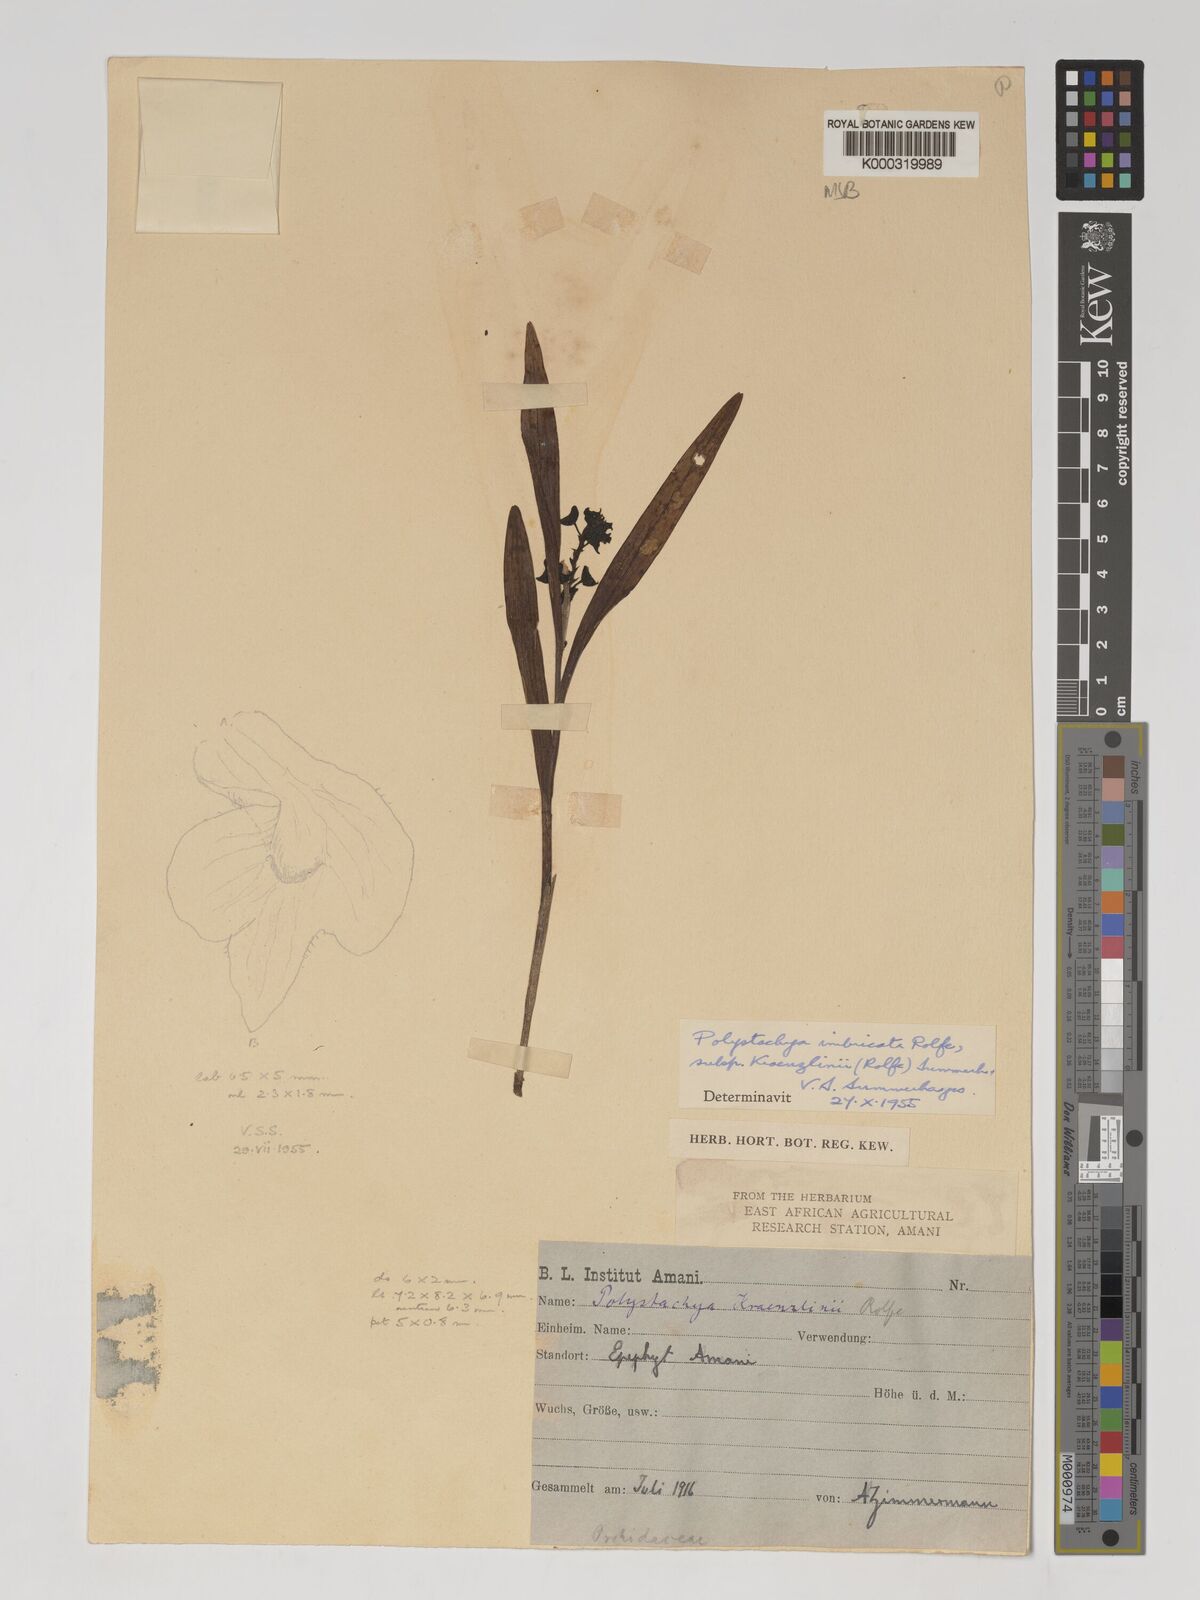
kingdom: Plantae
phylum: Tracheophyta
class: Liliopsida
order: Asparagales
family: Orchidaceae
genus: Polystachya
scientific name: Polystachya albescens
